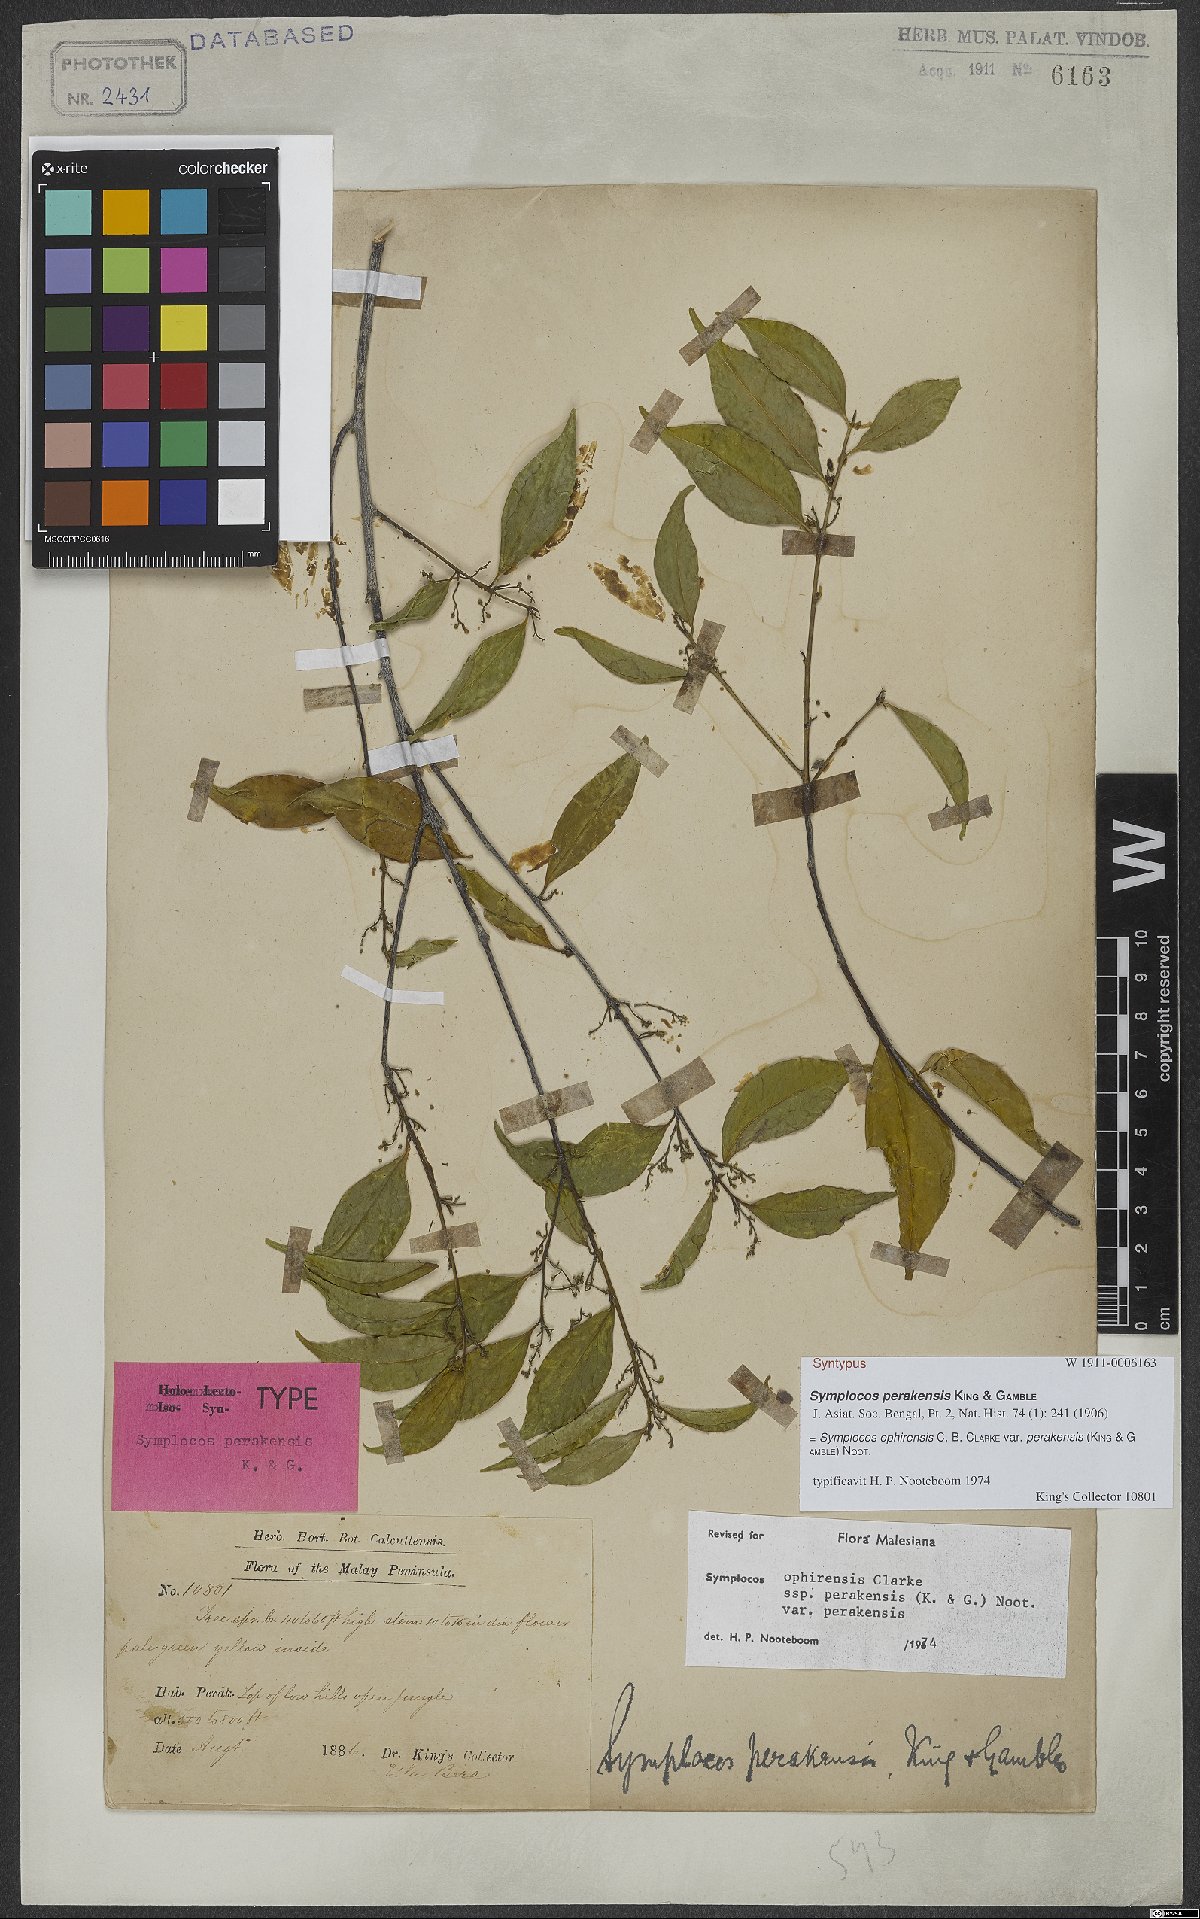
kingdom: Plantae
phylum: Tracheophyta
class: Magnoliopsida
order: Ericales
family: Symplocaceae
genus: Symplocos
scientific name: Symplocos ophirensis
